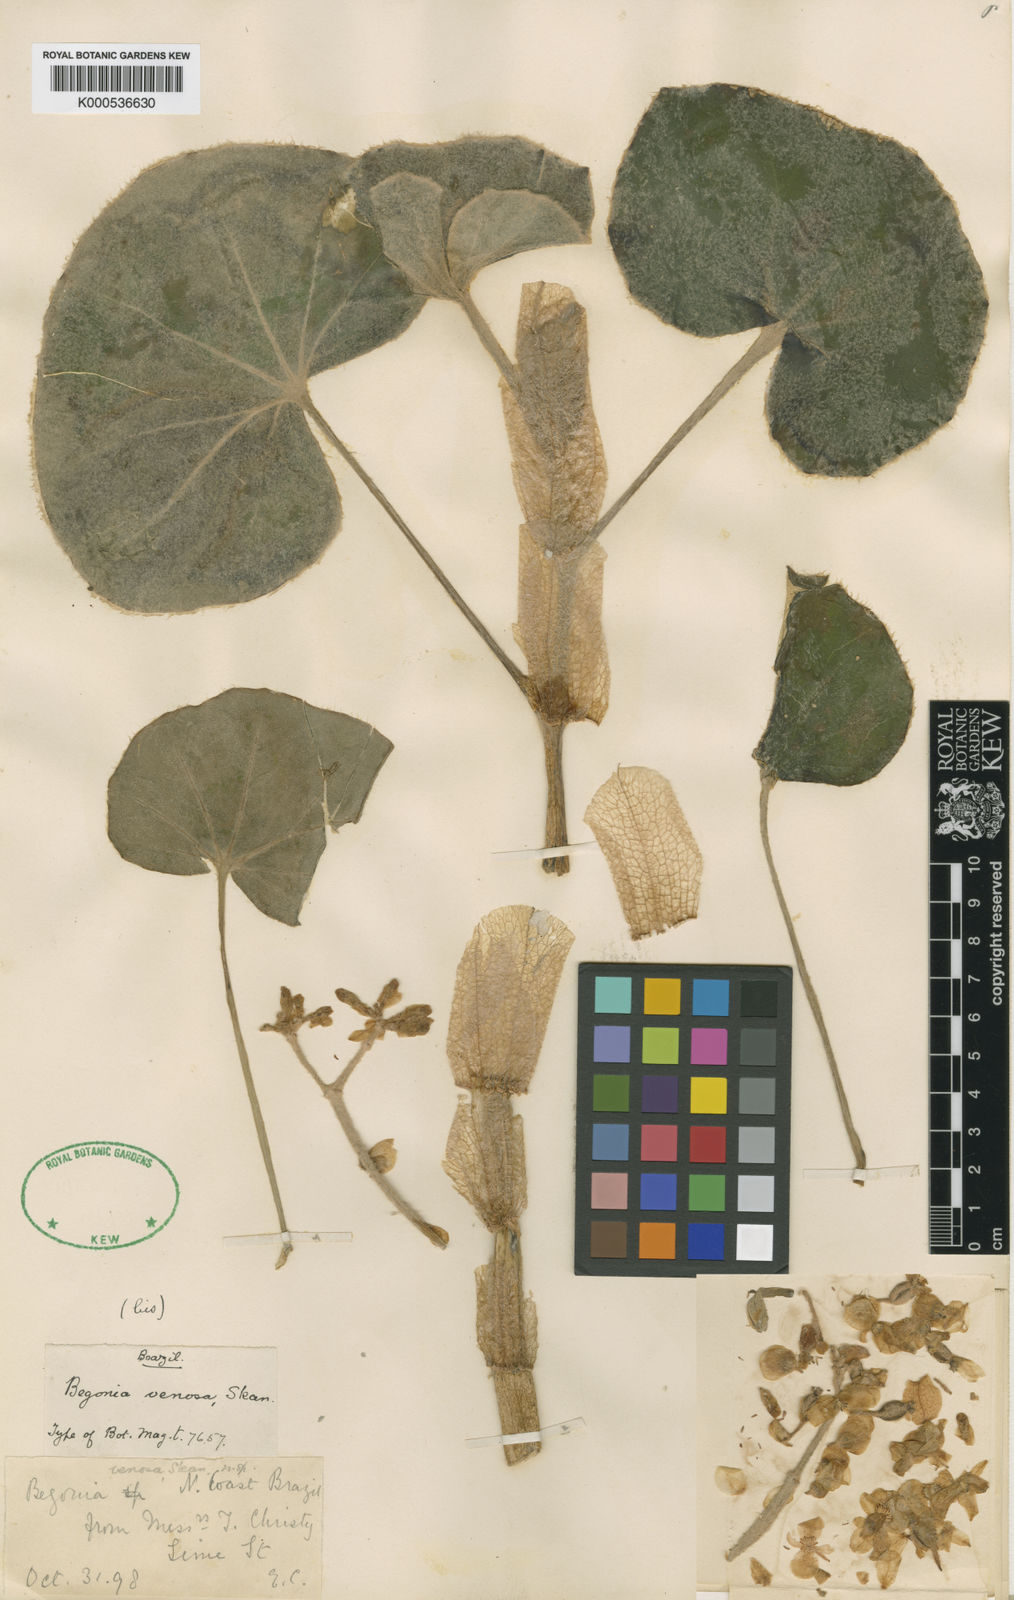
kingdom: Plantae
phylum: Tracheophyta
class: Magnoliopsida
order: Cucurbitales
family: Begoniaceae
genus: Begonia
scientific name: Begonia venosa
